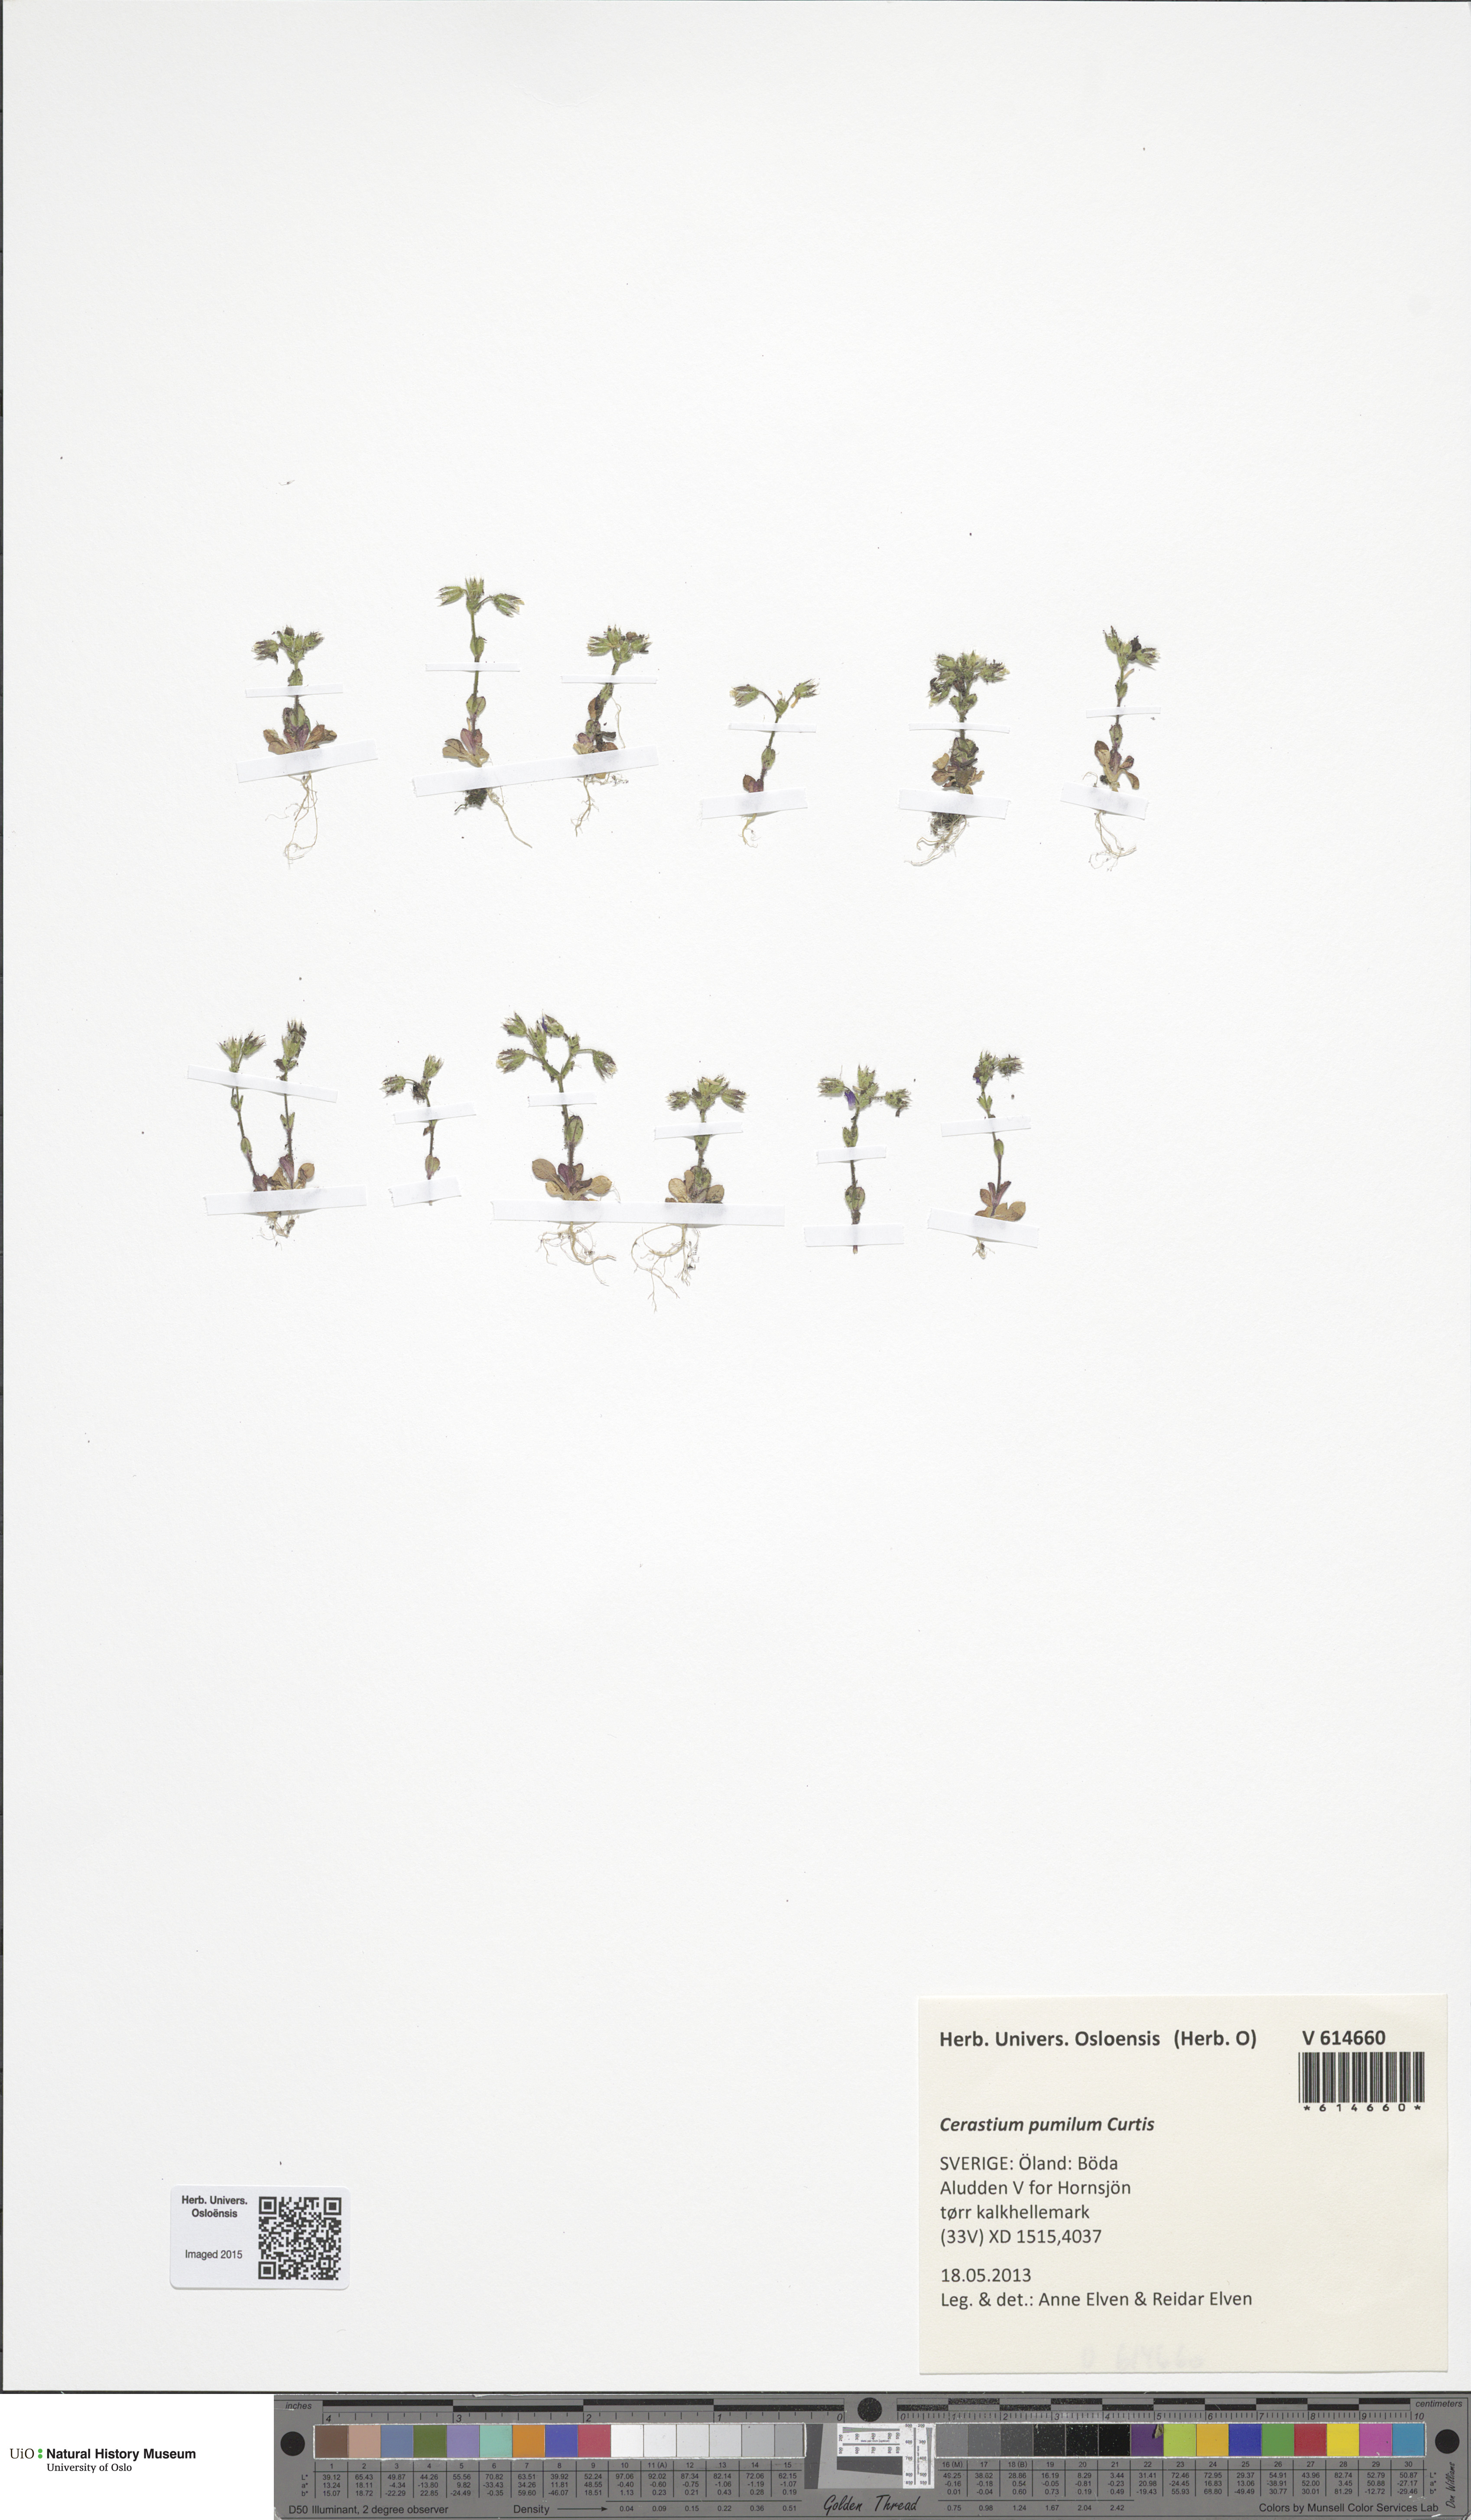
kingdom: Plantae
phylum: Tracheophyta
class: Magnoliopsida
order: Caryophyllales
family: Caryophyllaceae
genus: Cerastium
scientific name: Cerastium pumilum
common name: Dwarf mouse-ear
